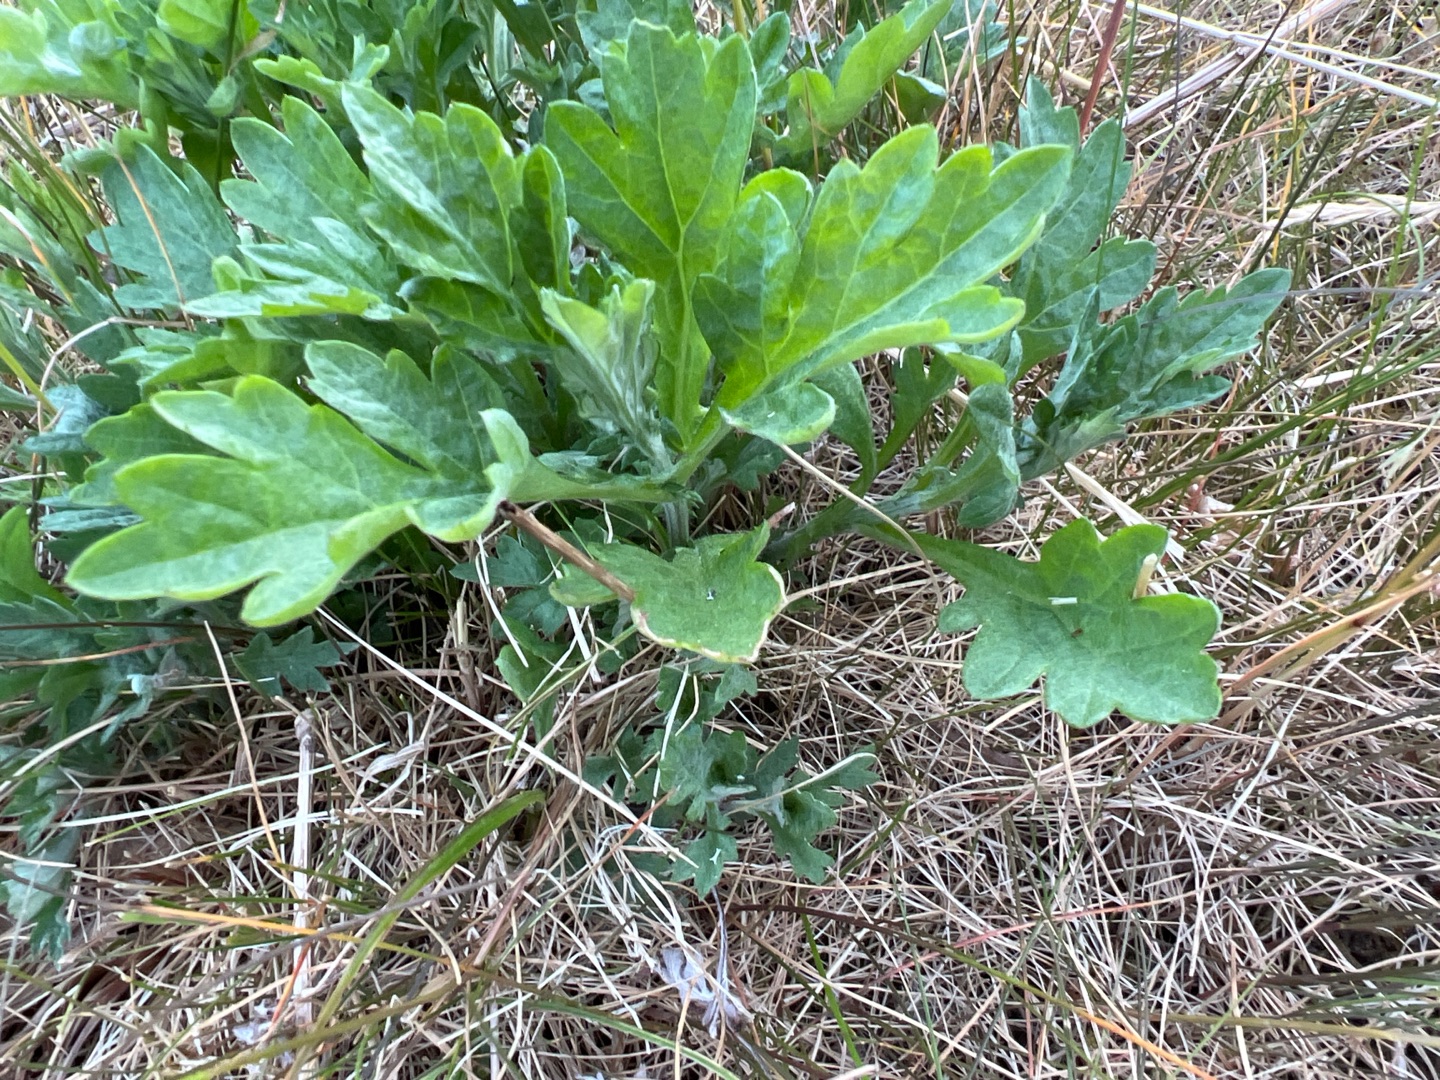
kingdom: Plantae
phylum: Tracheophyta
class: Magnoliopsida
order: Asterales
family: Asteraceae
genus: Artemisia
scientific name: Artemisia vulgaris
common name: Grå-bynke
